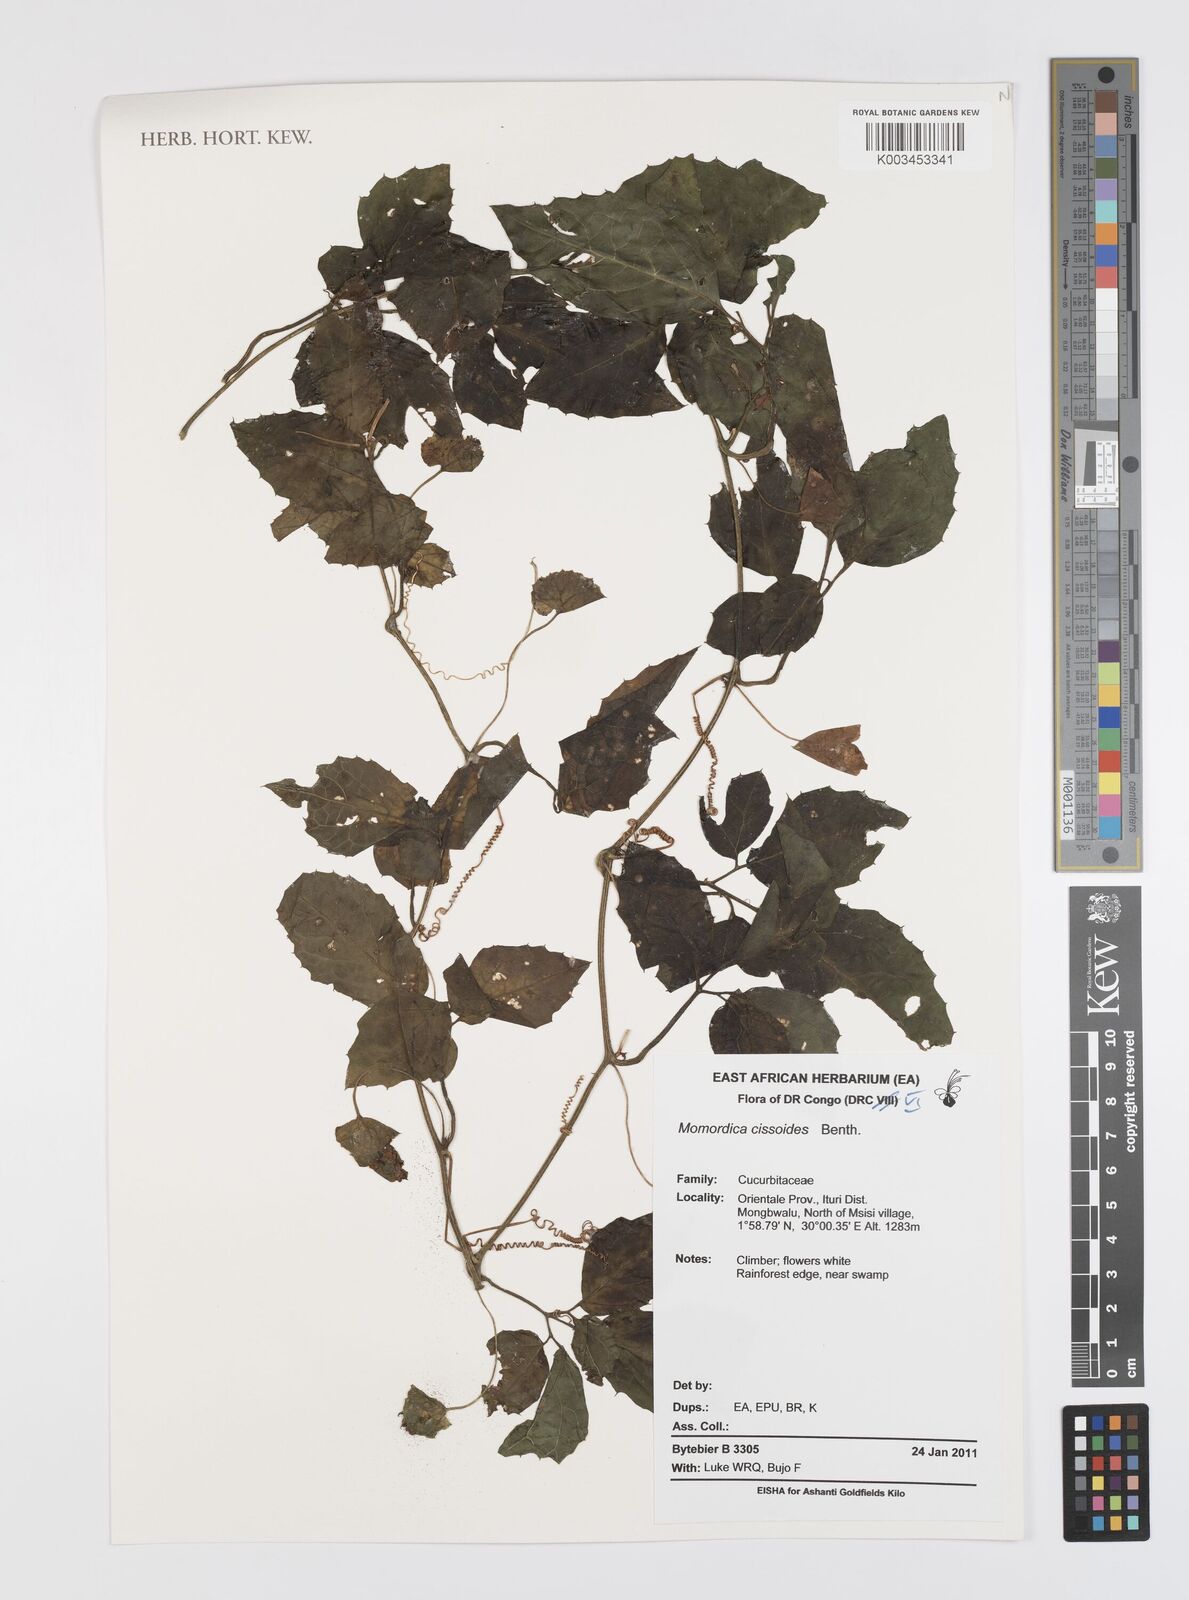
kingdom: Plantae
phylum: Tracheophyta
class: Magnoliopsida
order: Cucurbitales
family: Cucurbitaceae
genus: Momordica
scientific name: Momordica cissoides
